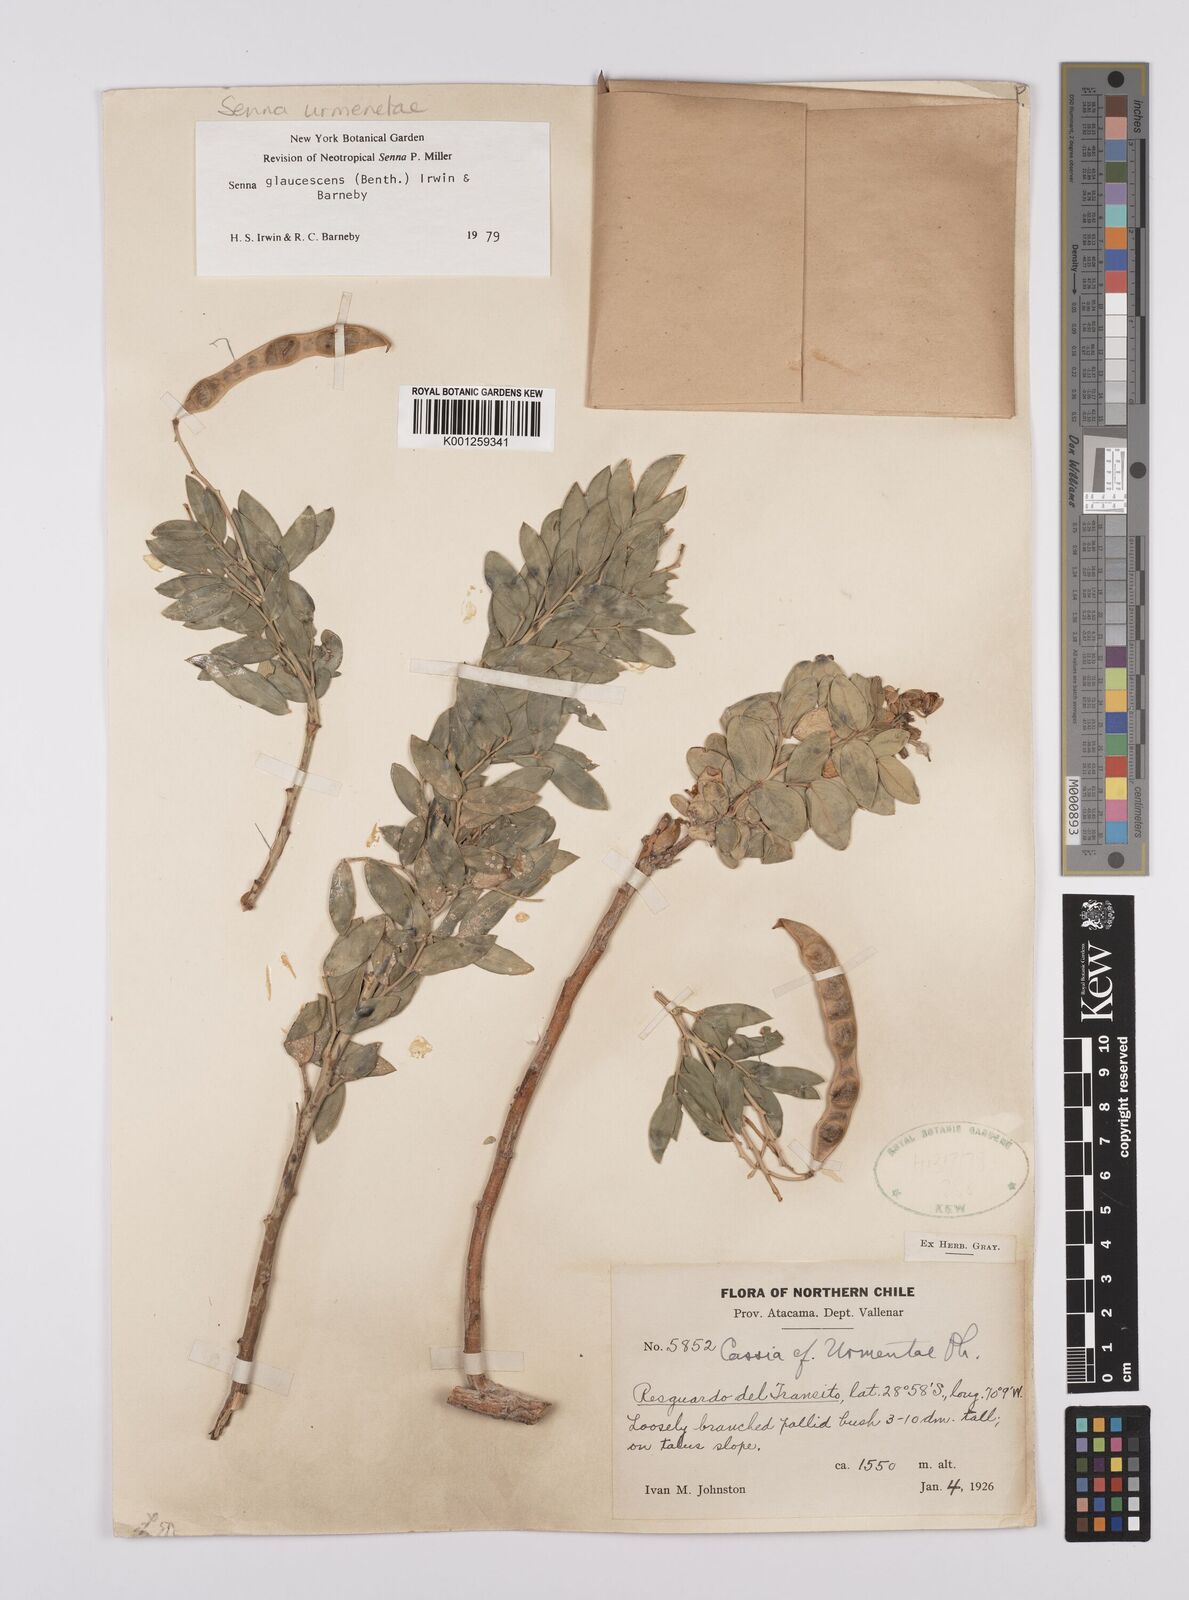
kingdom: Plantae
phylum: Tracheophyta
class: Magnoliopsida
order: Fabales
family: Fabaceae
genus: Senna
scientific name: Senna urmenetae
